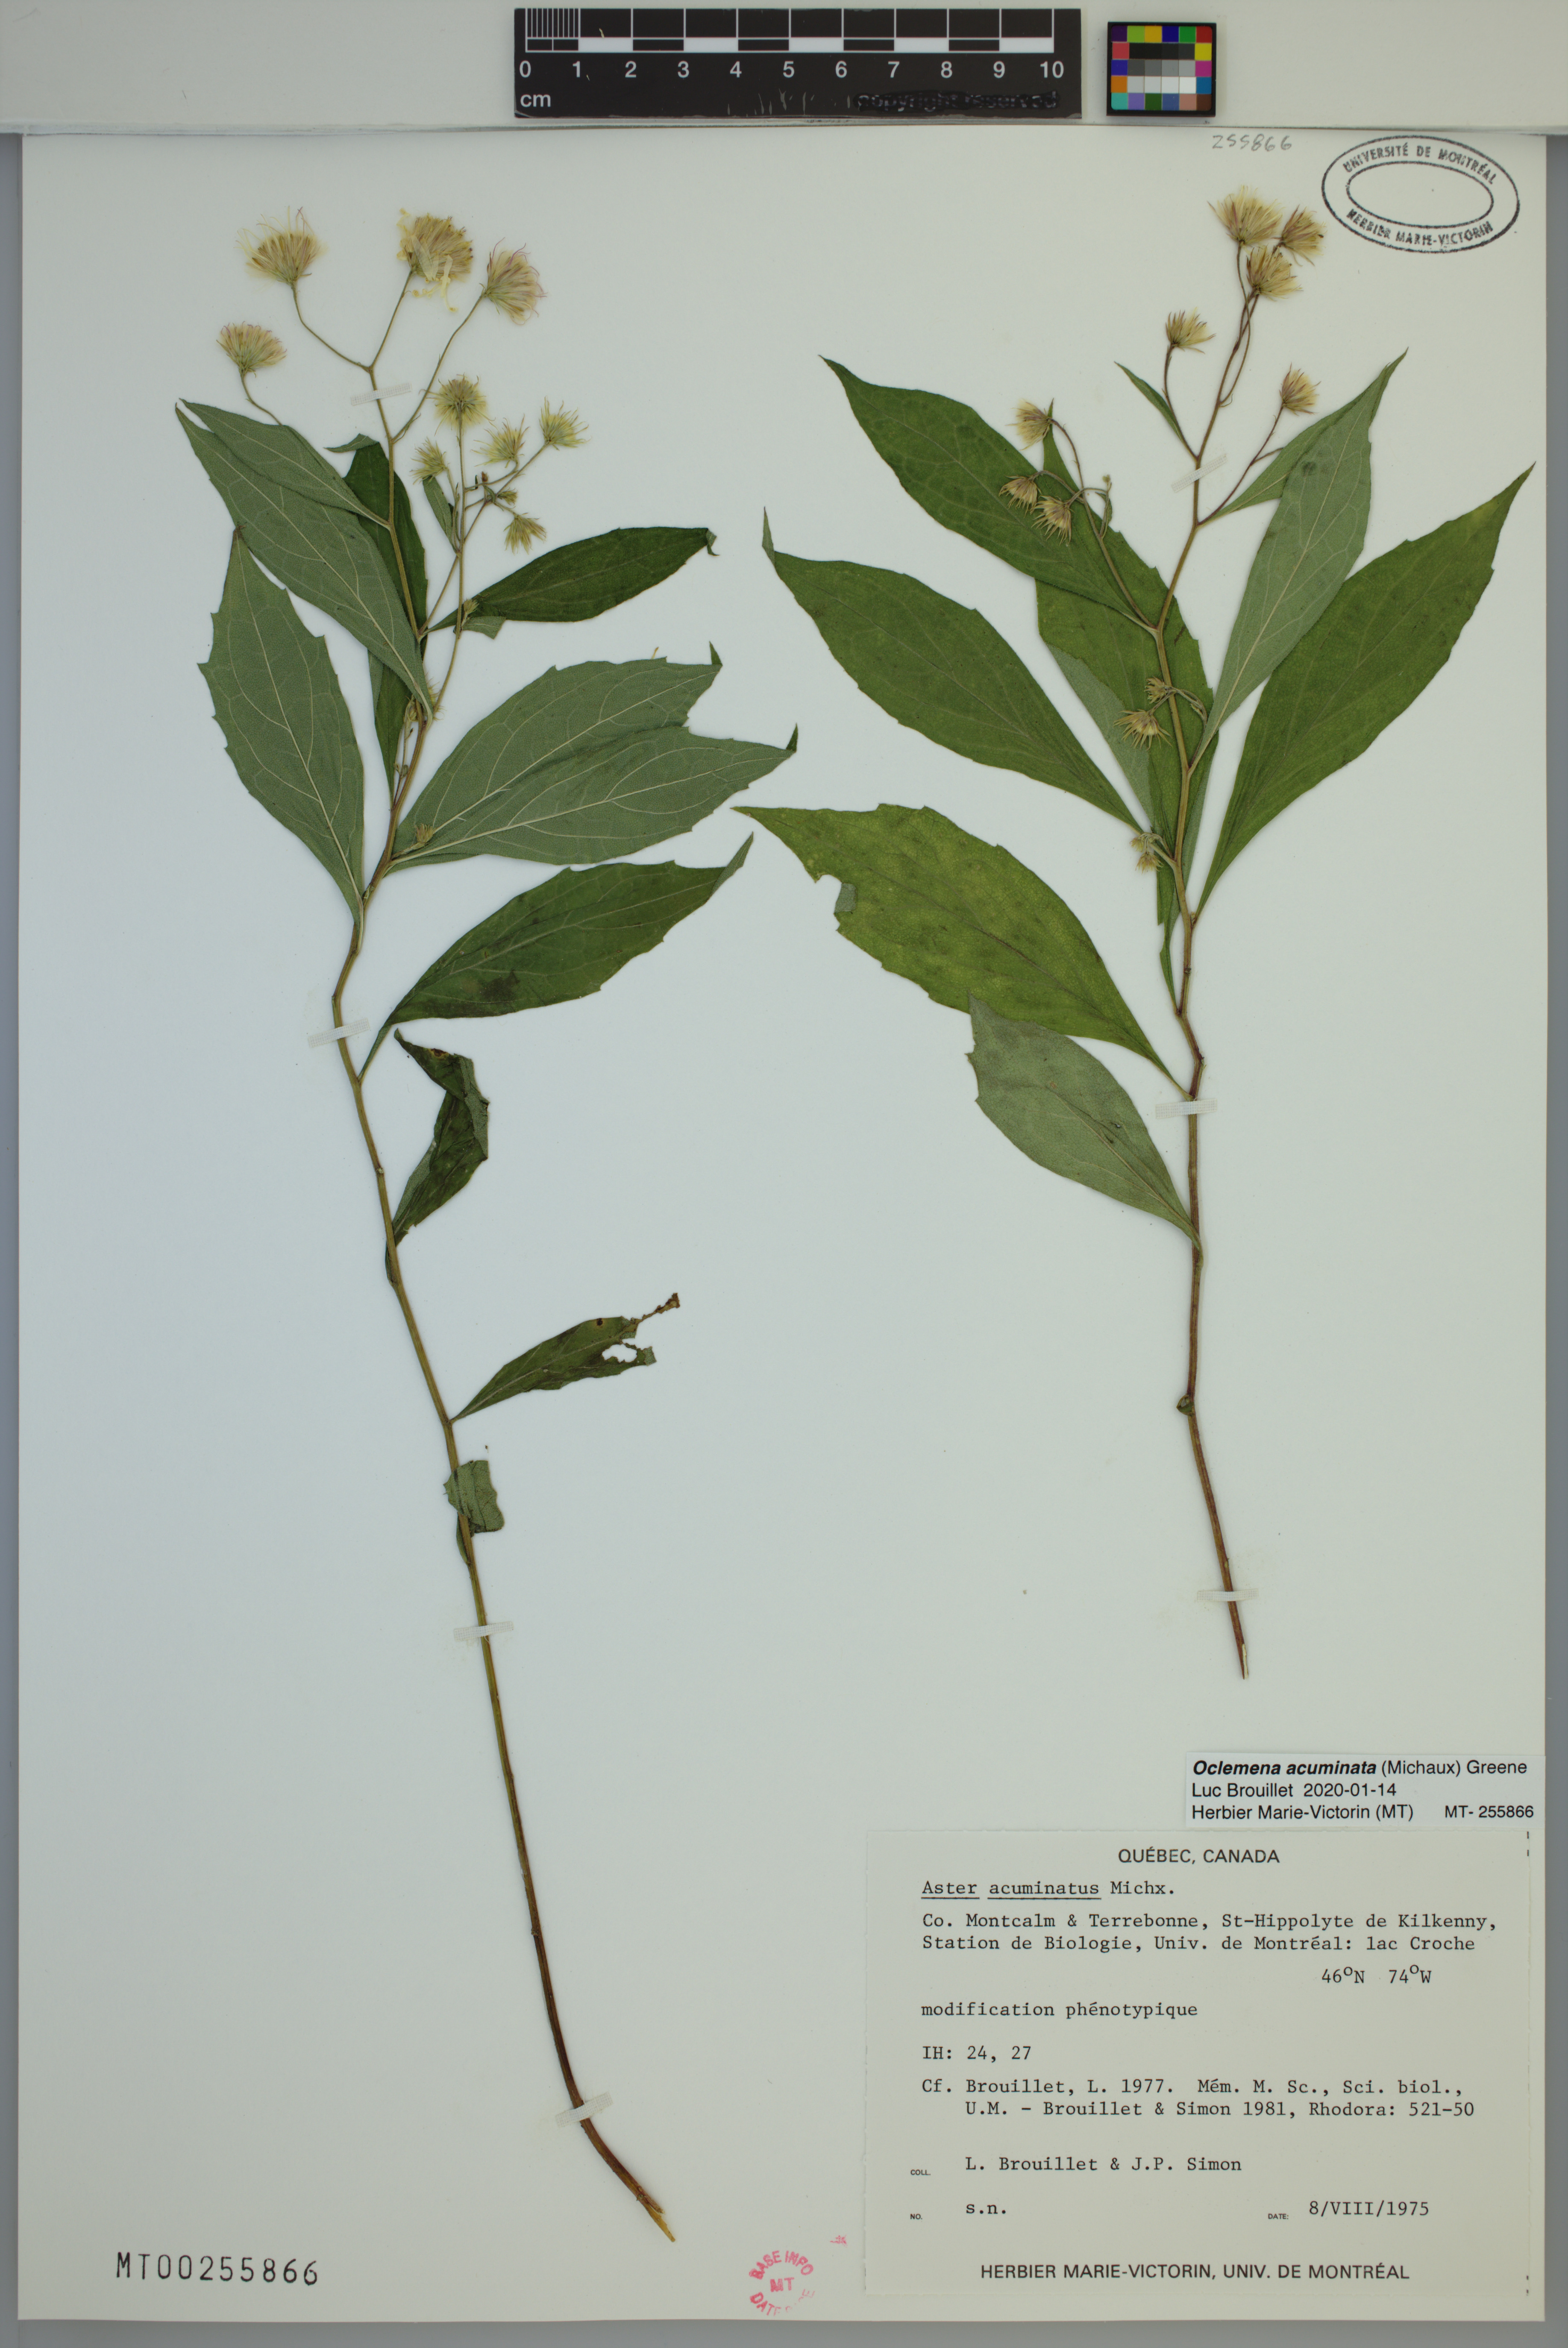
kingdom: Plantae
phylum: Tracheophyta
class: Magnoliopsida
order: Asterales
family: Asteraceae
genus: Oclemena
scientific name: Oclemena acuminata
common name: Mountain aster
